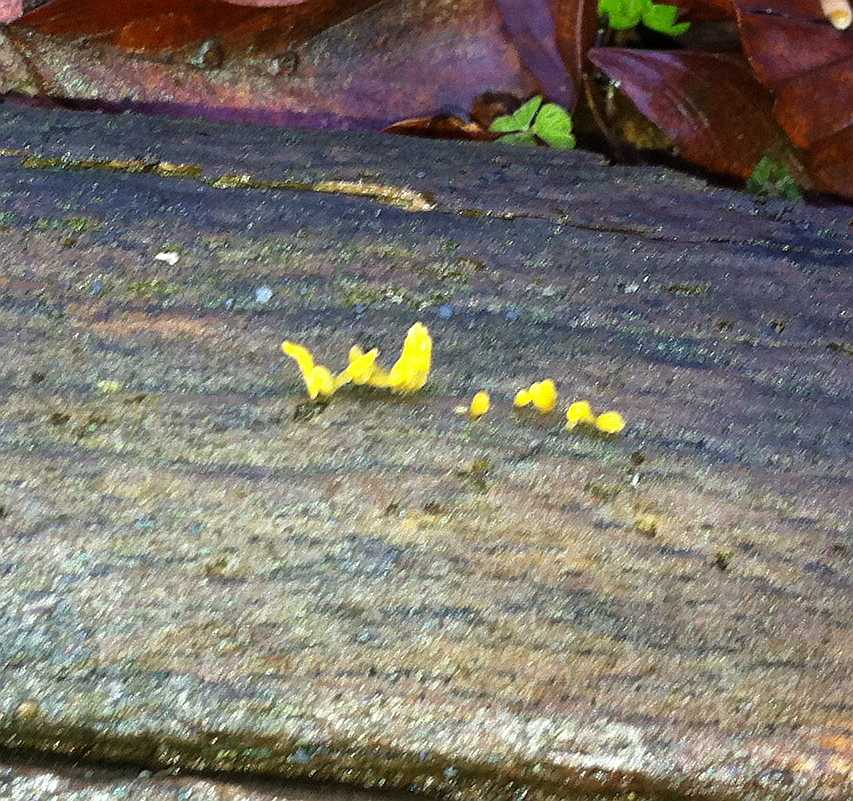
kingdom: Fungi
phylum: Basidiomycota
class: Dacrymycetes
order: Dacrymycetales
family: Dacrymycetaceae
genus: Calocera
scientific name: Calocera cornea
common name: liden guldgaffel
